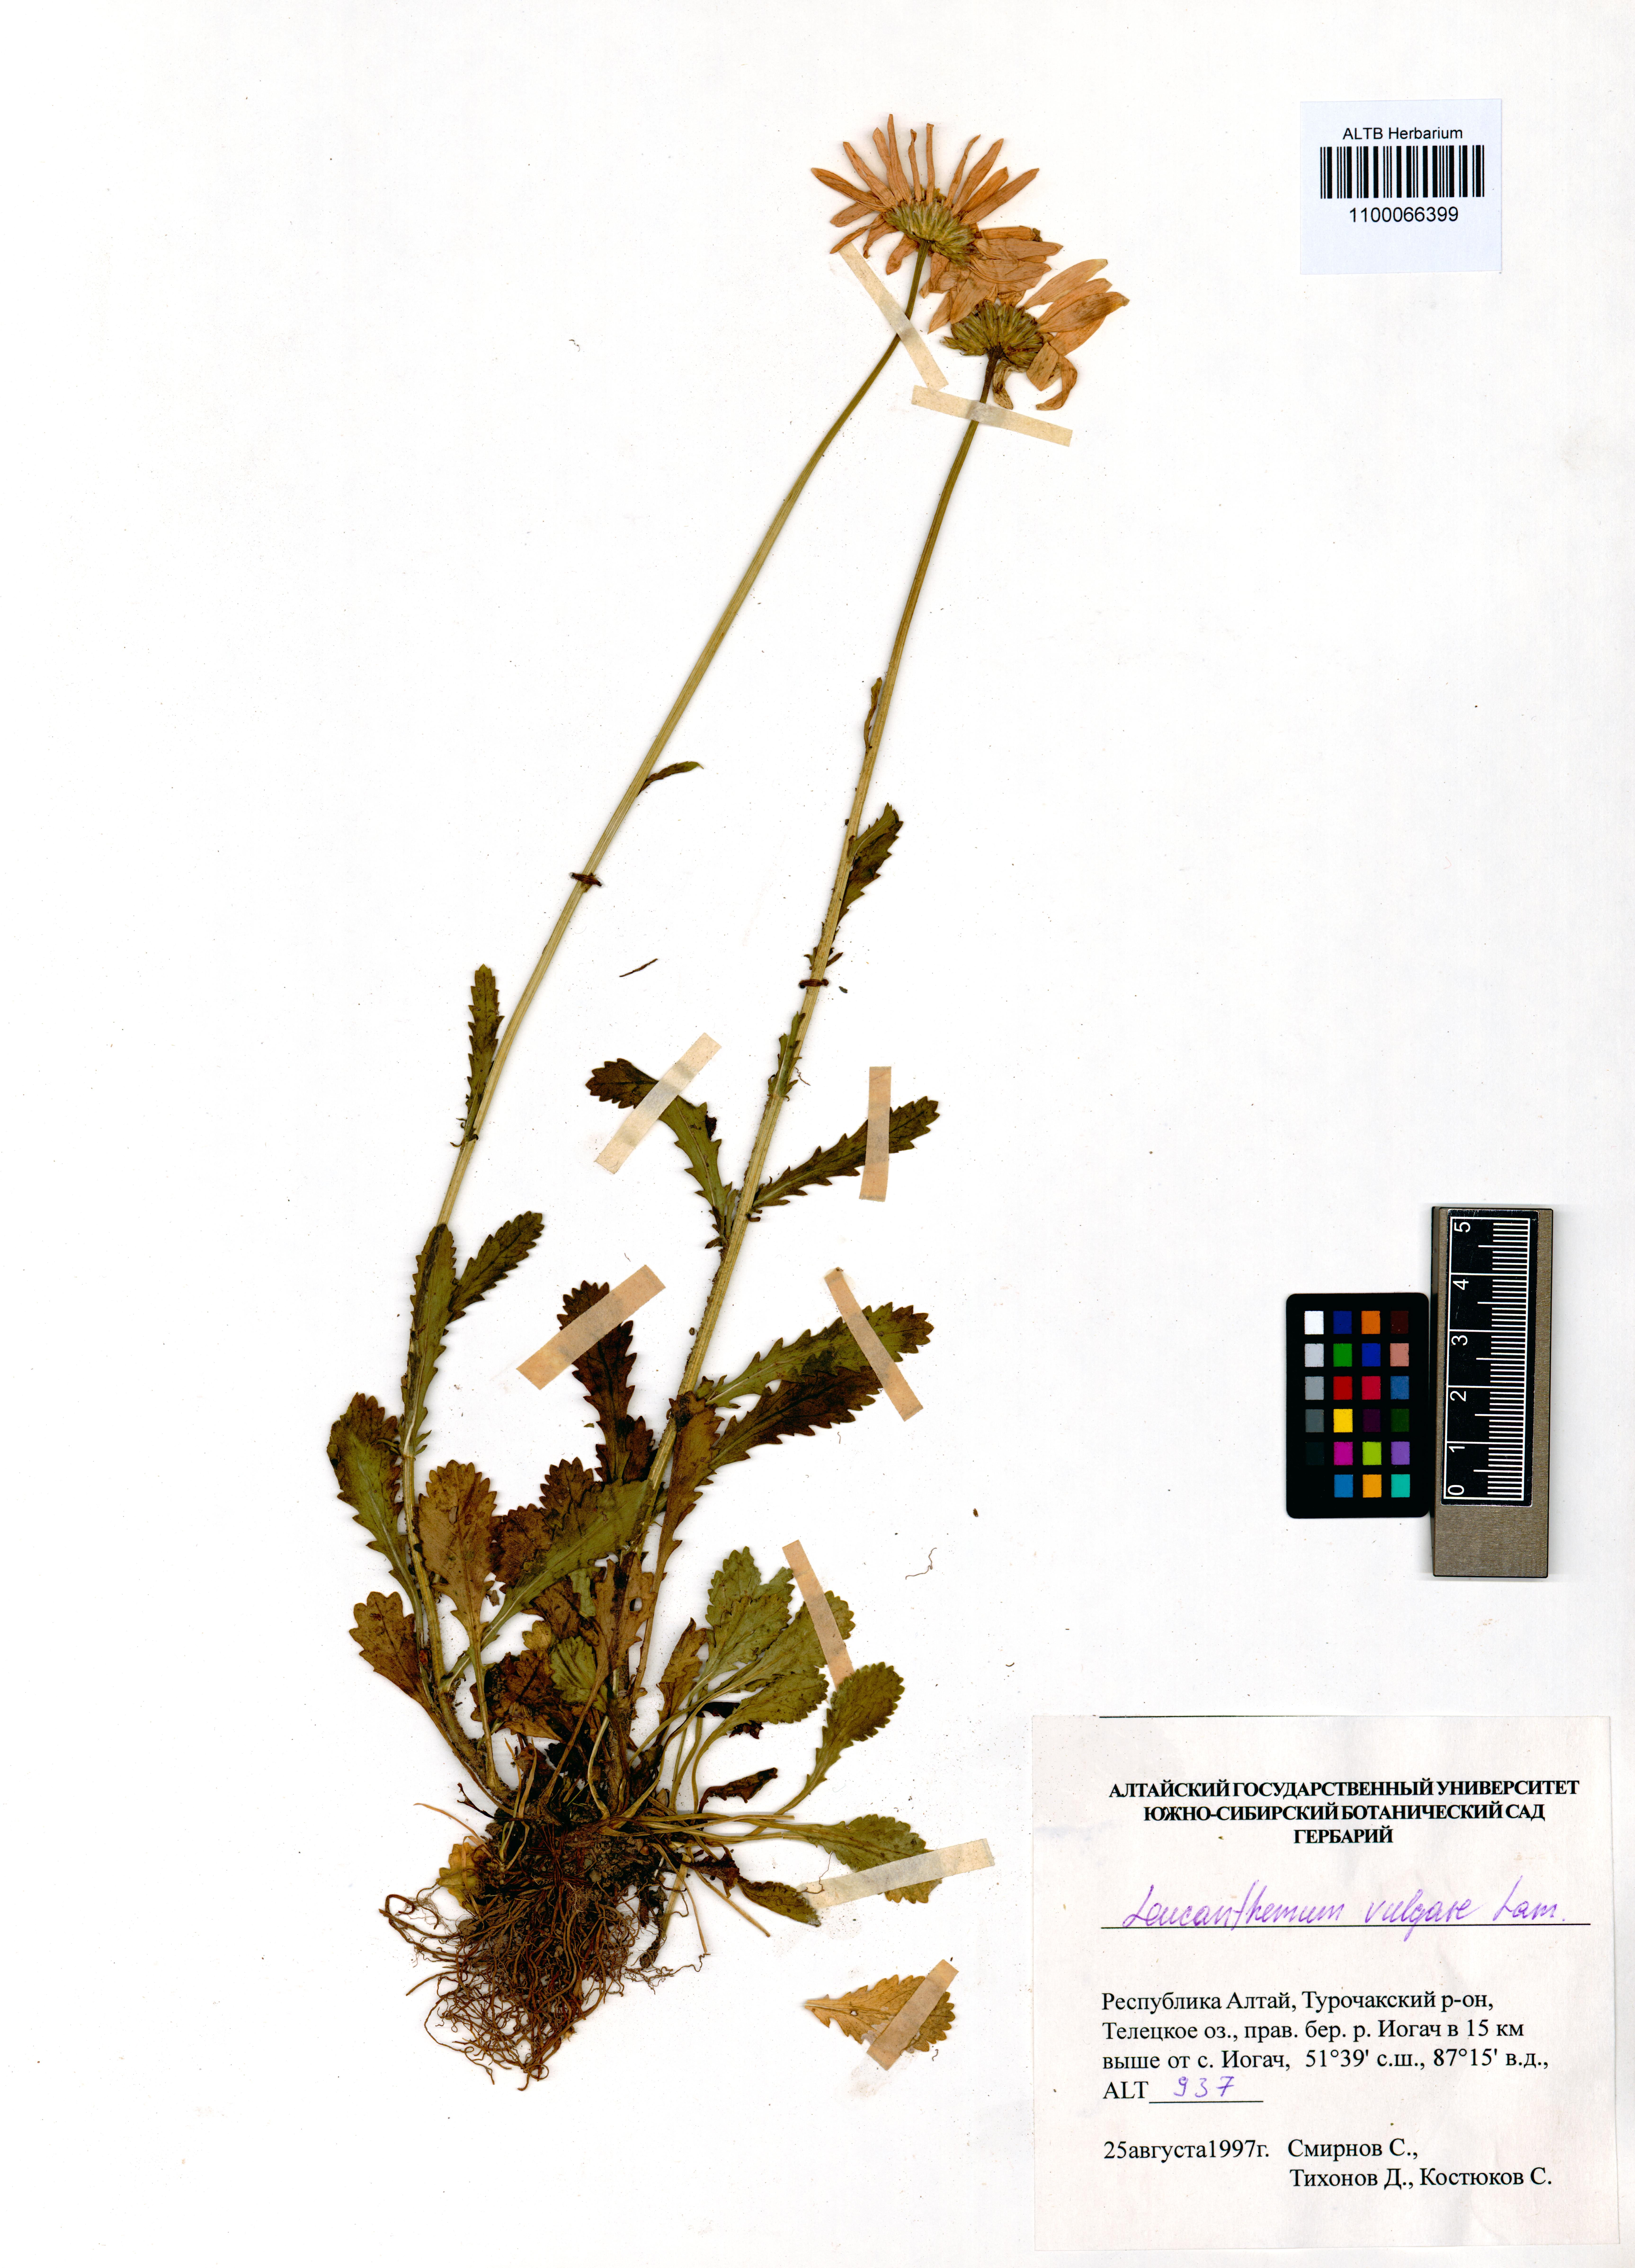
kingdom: Plantae
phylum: Tracheophyta
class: Magnoliopsida
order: Asterales
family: Asteraceae
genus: Leucanthemum
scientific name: Leucanthemum vulgare
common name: Oxeye daisy
